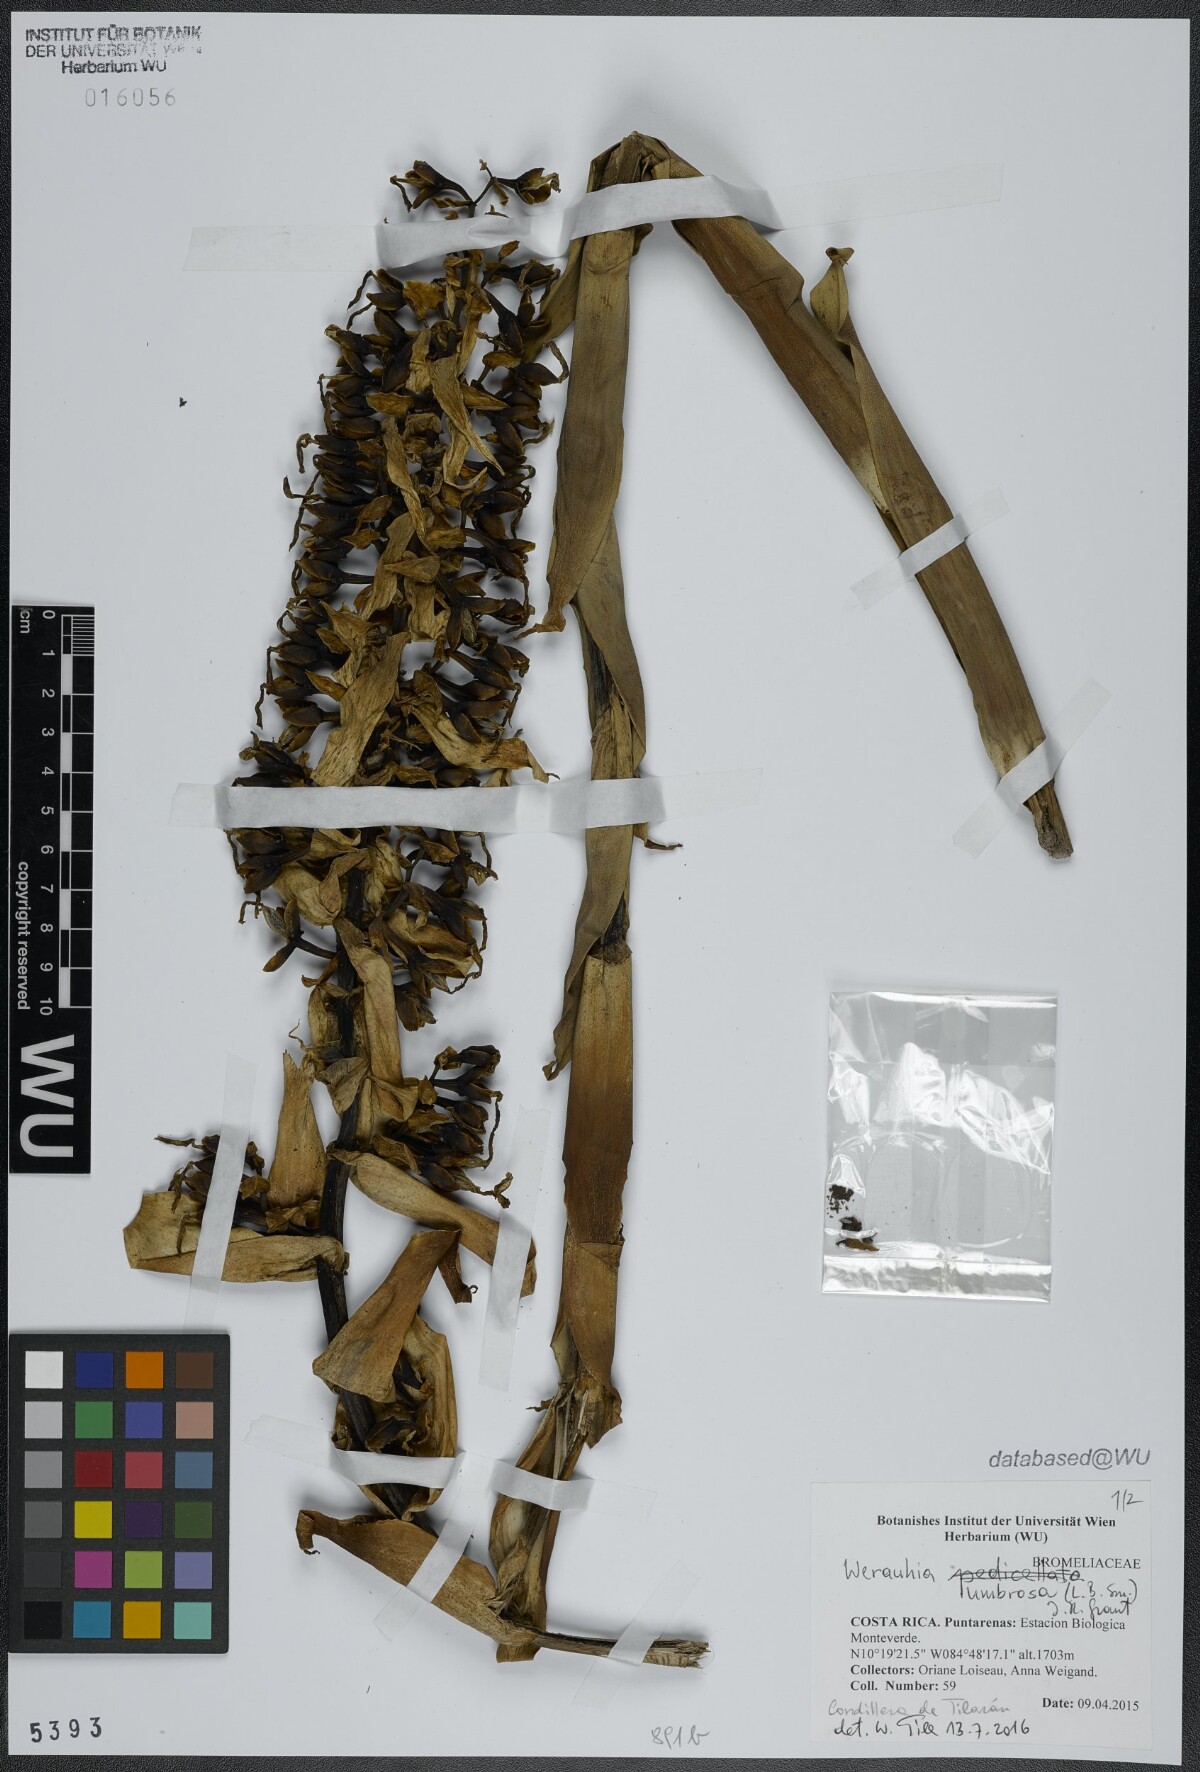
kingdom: Plantae
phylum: Tracheophyta
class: Liliopsida
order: Poales
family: Bromeliaceae
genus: Werauhia
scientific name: Werauhia umbrosa
